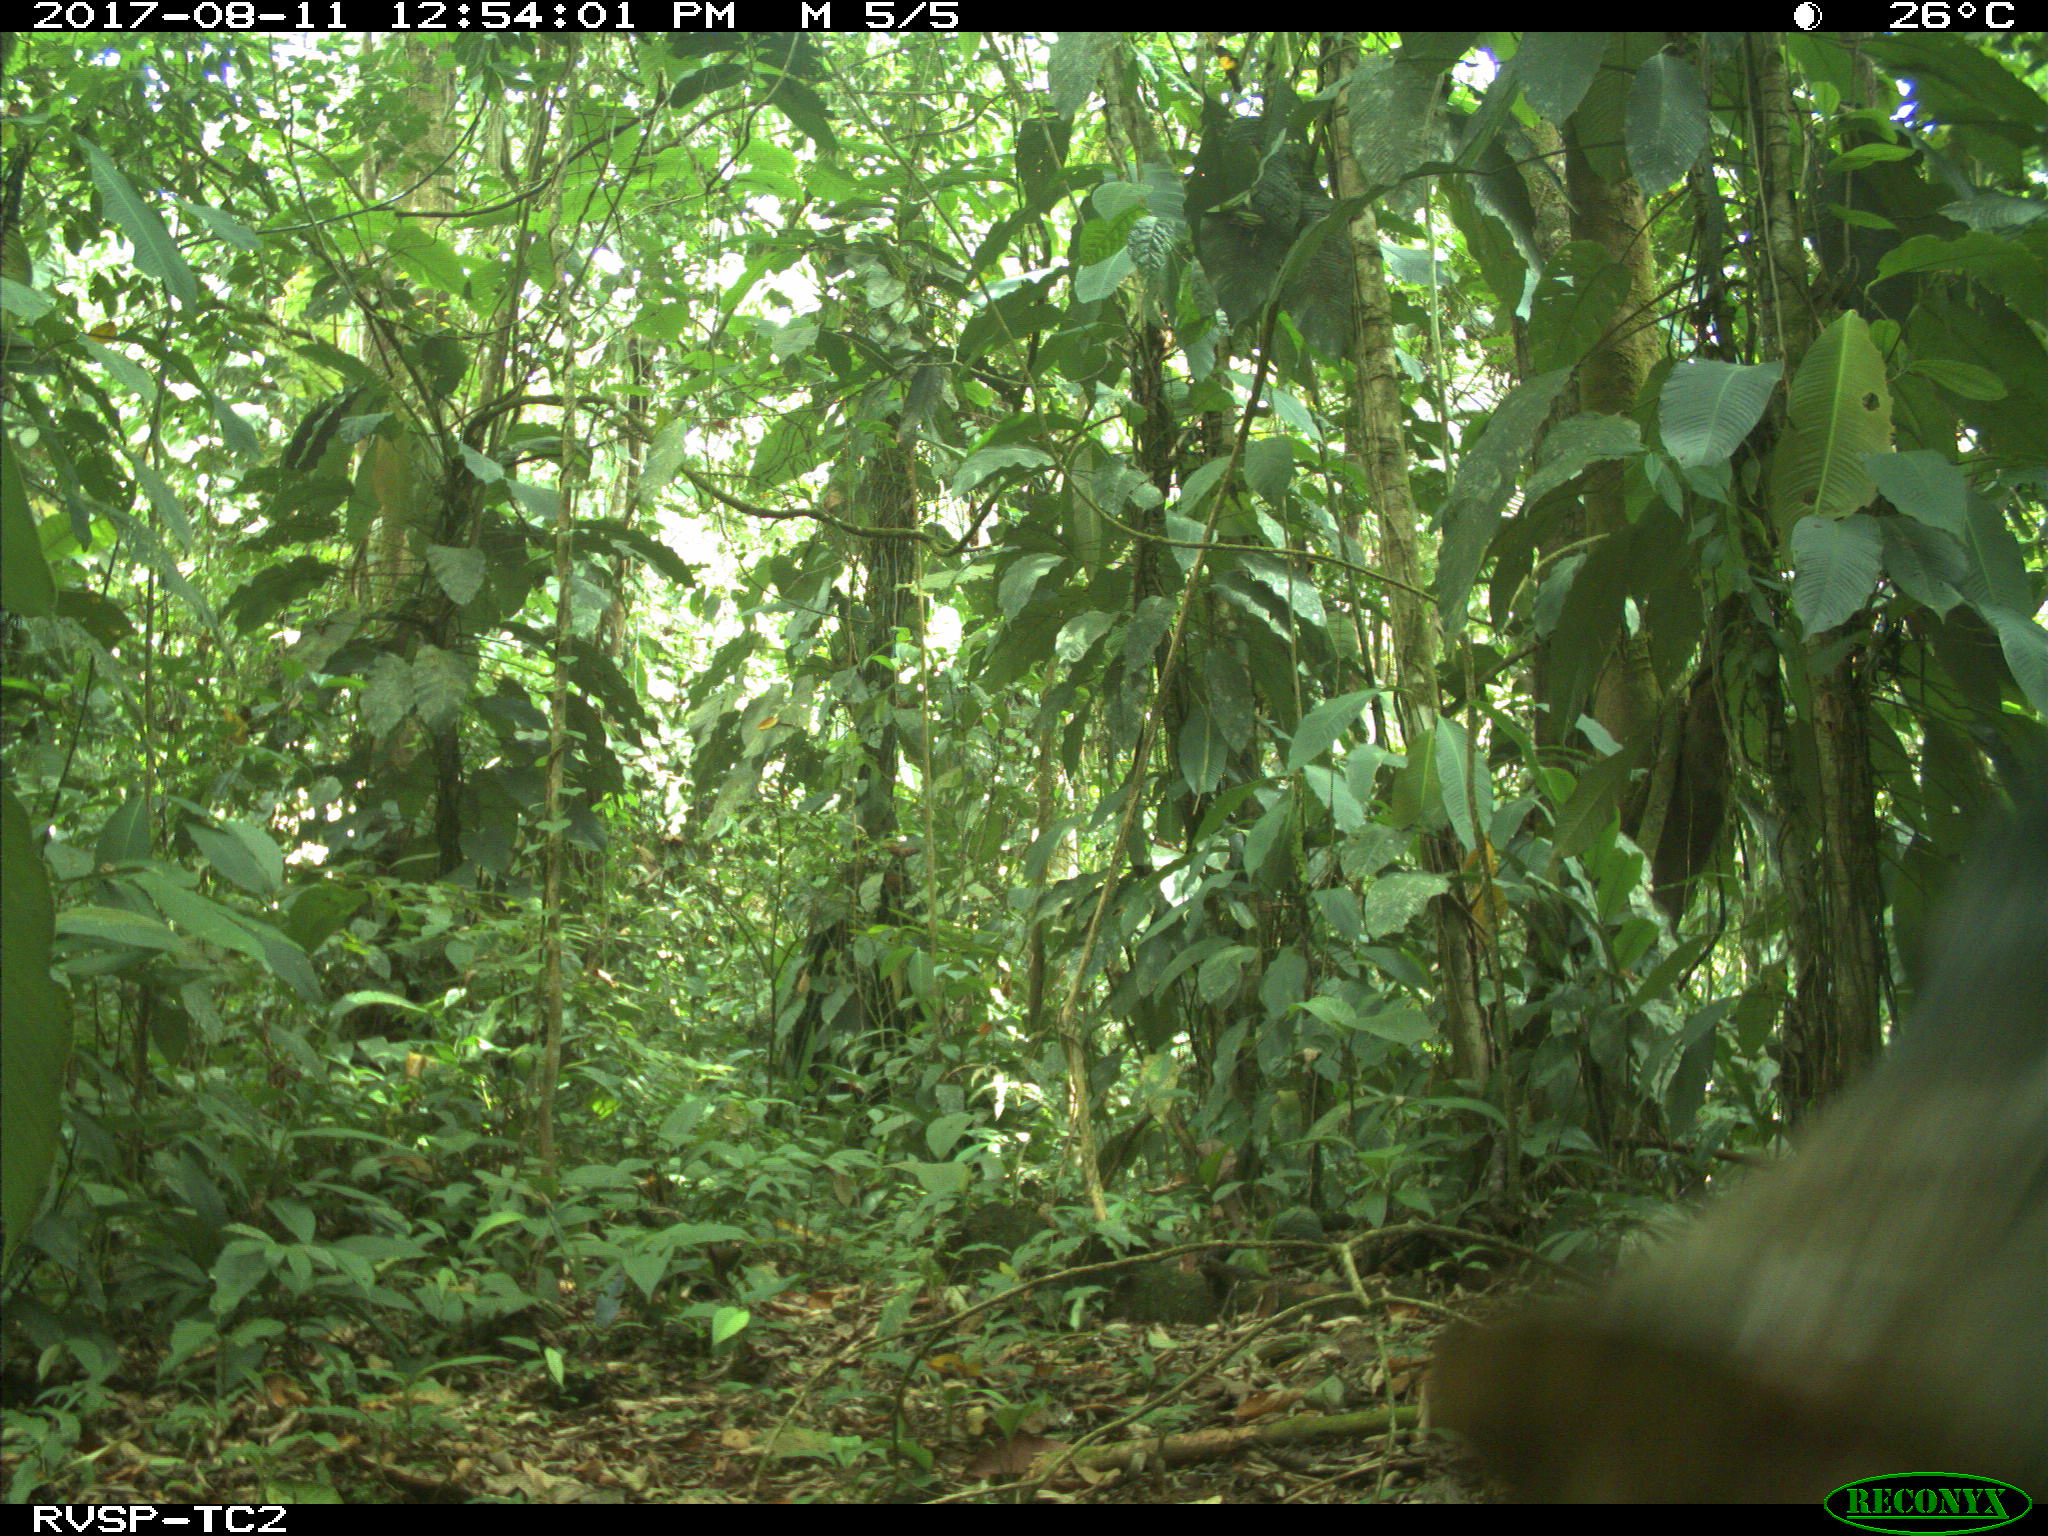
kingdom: Animalia
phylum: Chordata
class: Mammalia
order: Artiodactyla
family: Tayassuidae
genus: Tayassu
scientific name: Tayassu pecari
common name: White-lipped peccary
